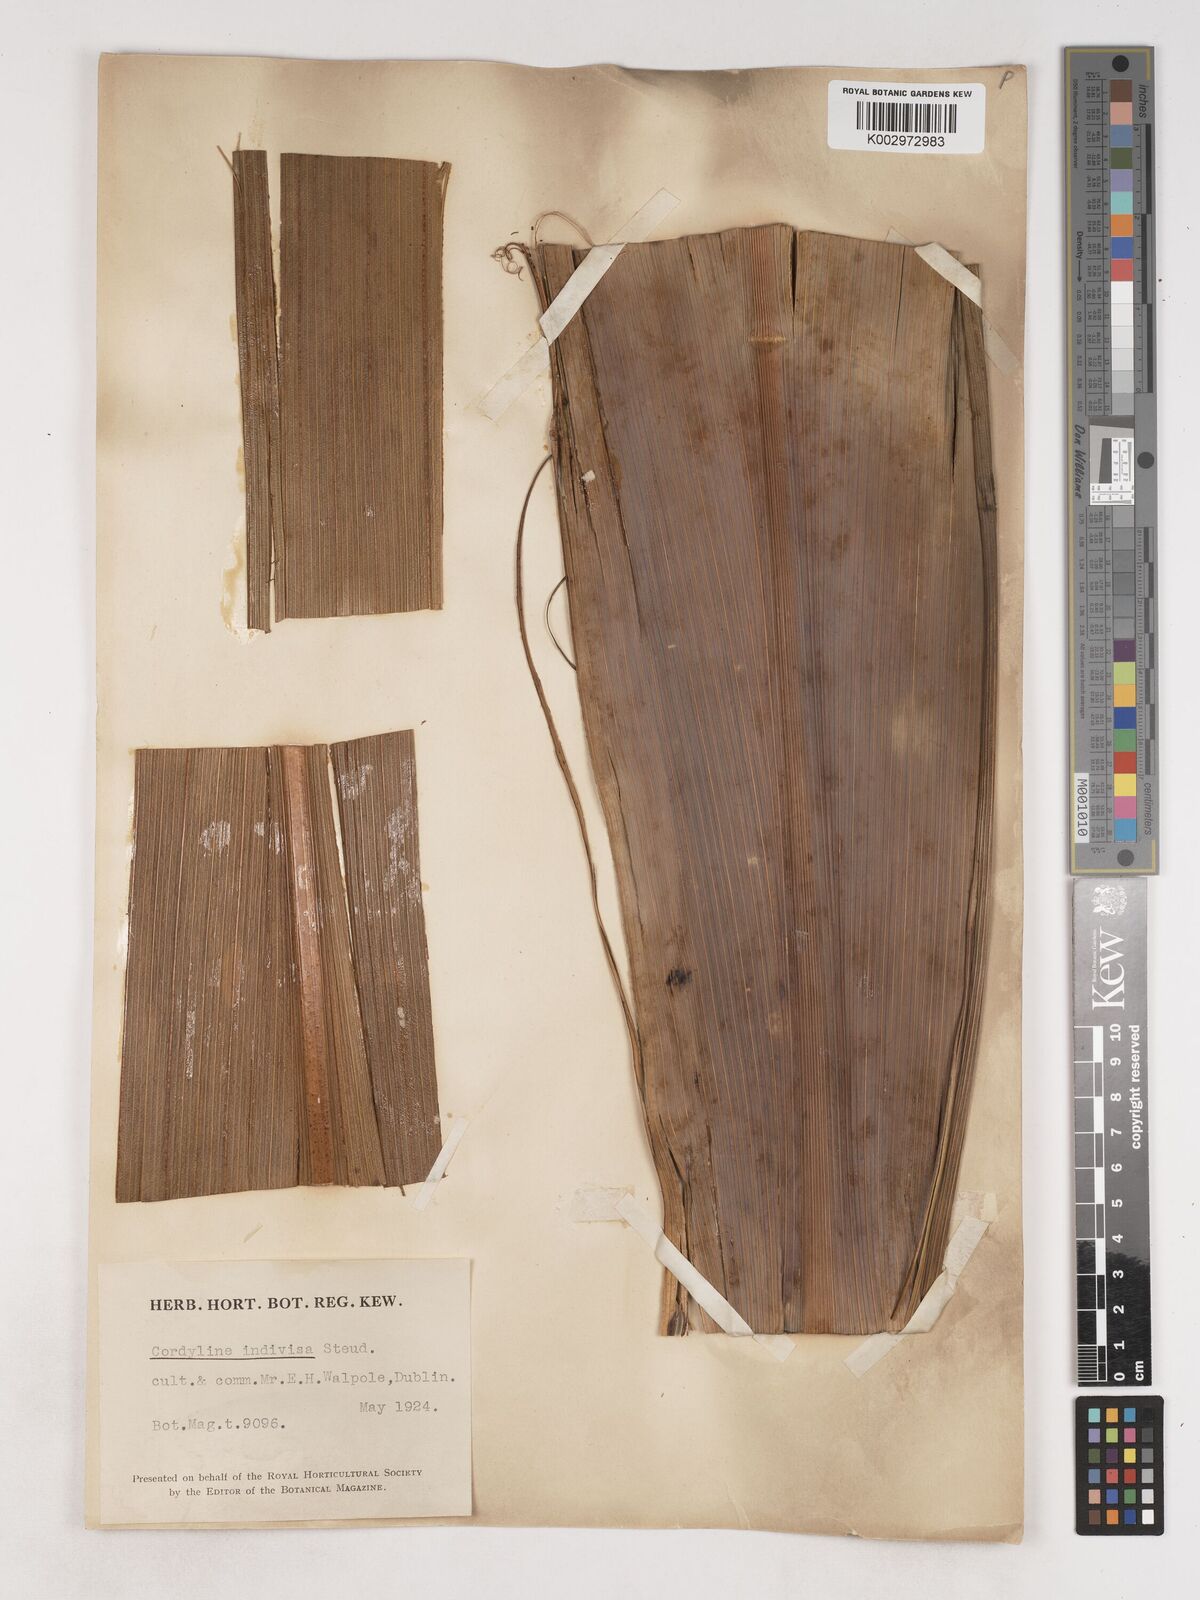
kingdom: Plantae
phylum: Tracheophyta
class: Liliopsida
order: Asparagales
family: Asparagaceae
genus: Cordyline
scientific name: Cordyline
